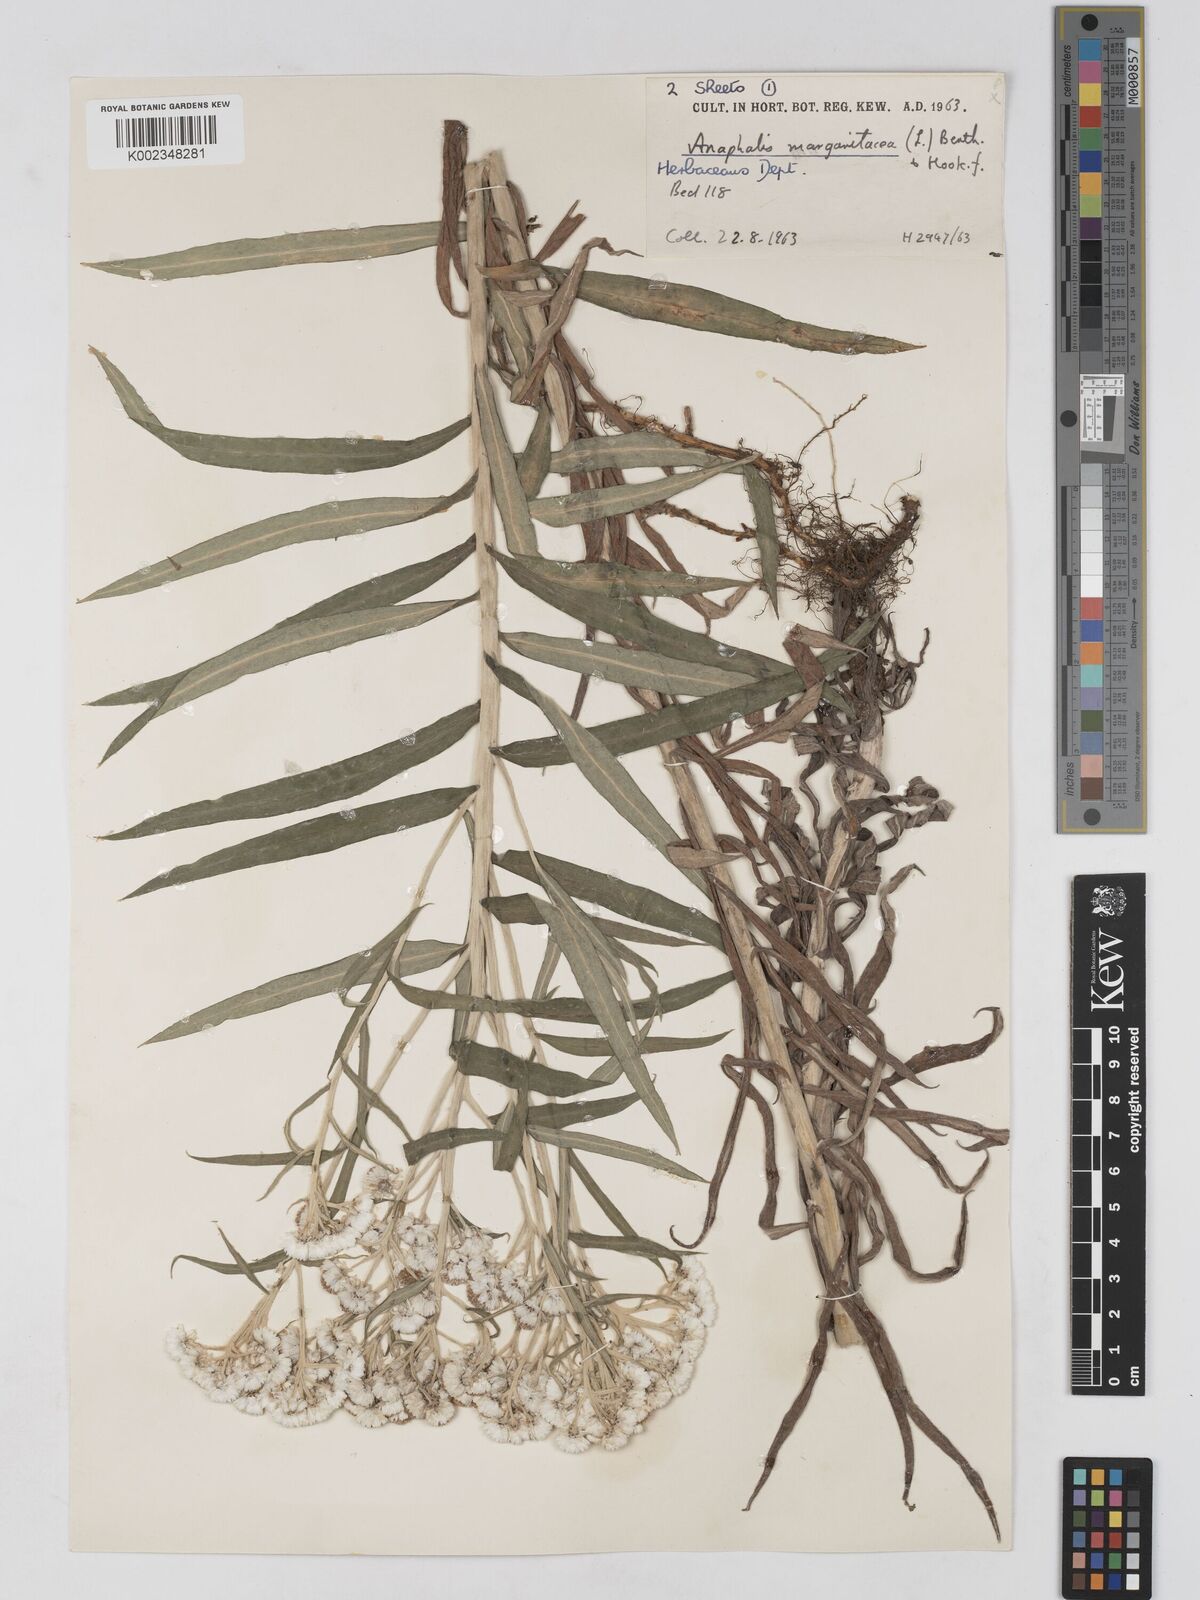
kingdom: Plantae
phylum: Tracheophyta
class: Magnoliopsida
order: Asterales
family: Asteraceae
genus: Anaphalis
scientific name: Anaphalis margaritacea
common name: Pearly everlasting
